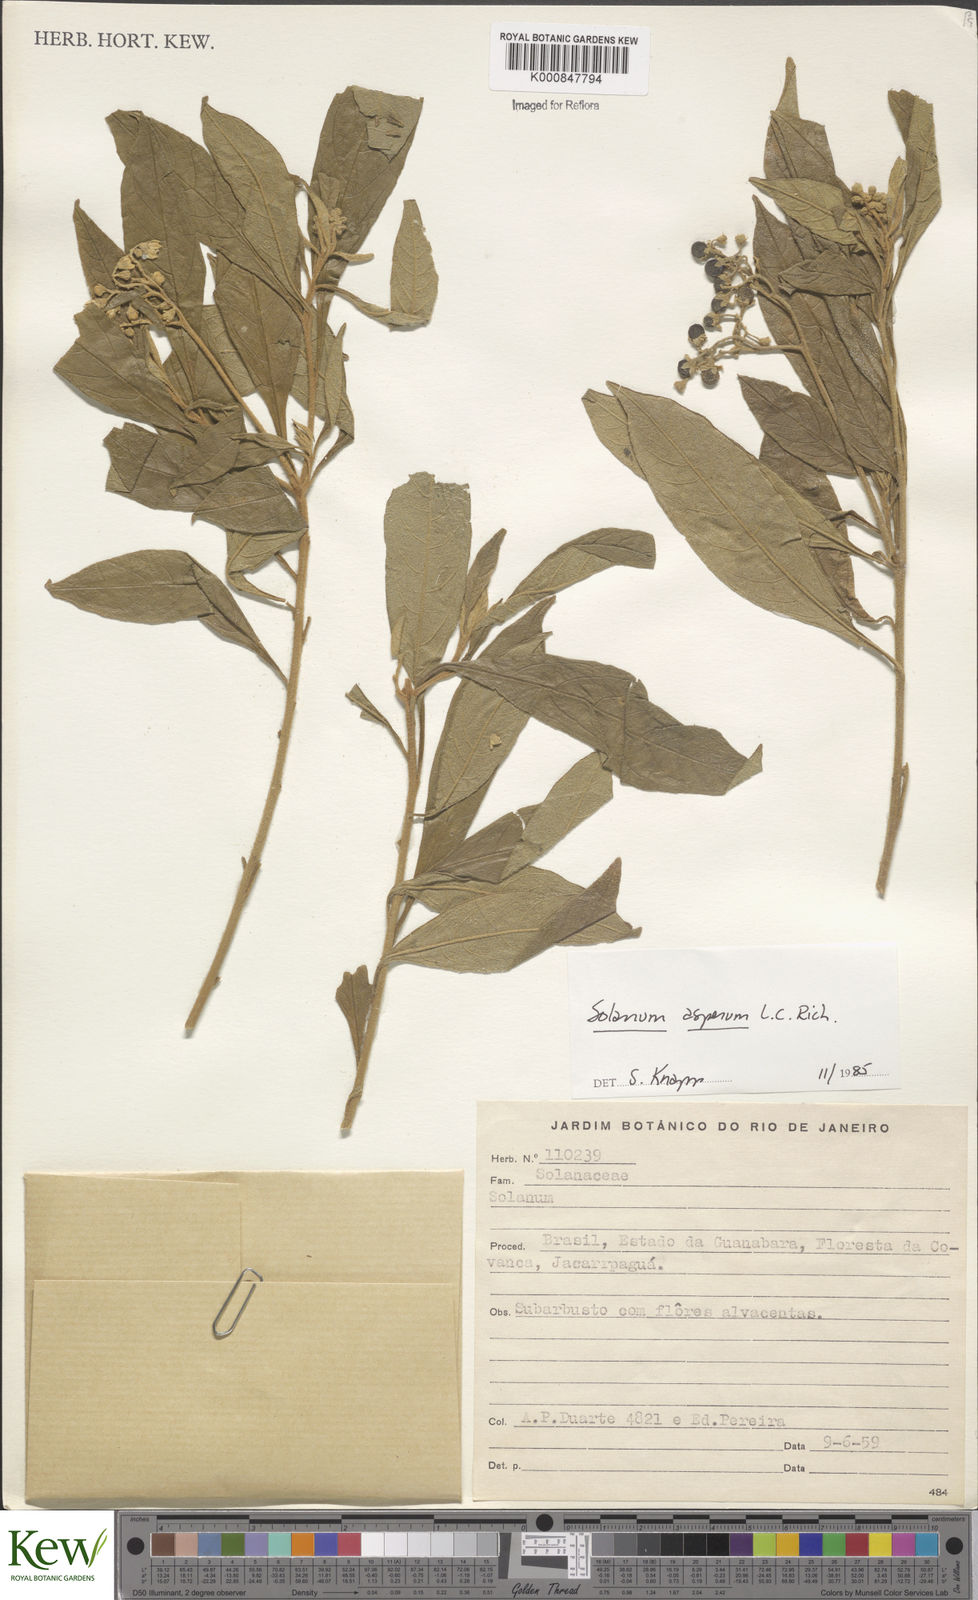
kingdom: Plantae
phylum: Tracheophyta
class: Magnoliopsida
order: Solanales
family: Solanaceae
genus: Solanum
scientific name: Solanum asperum
